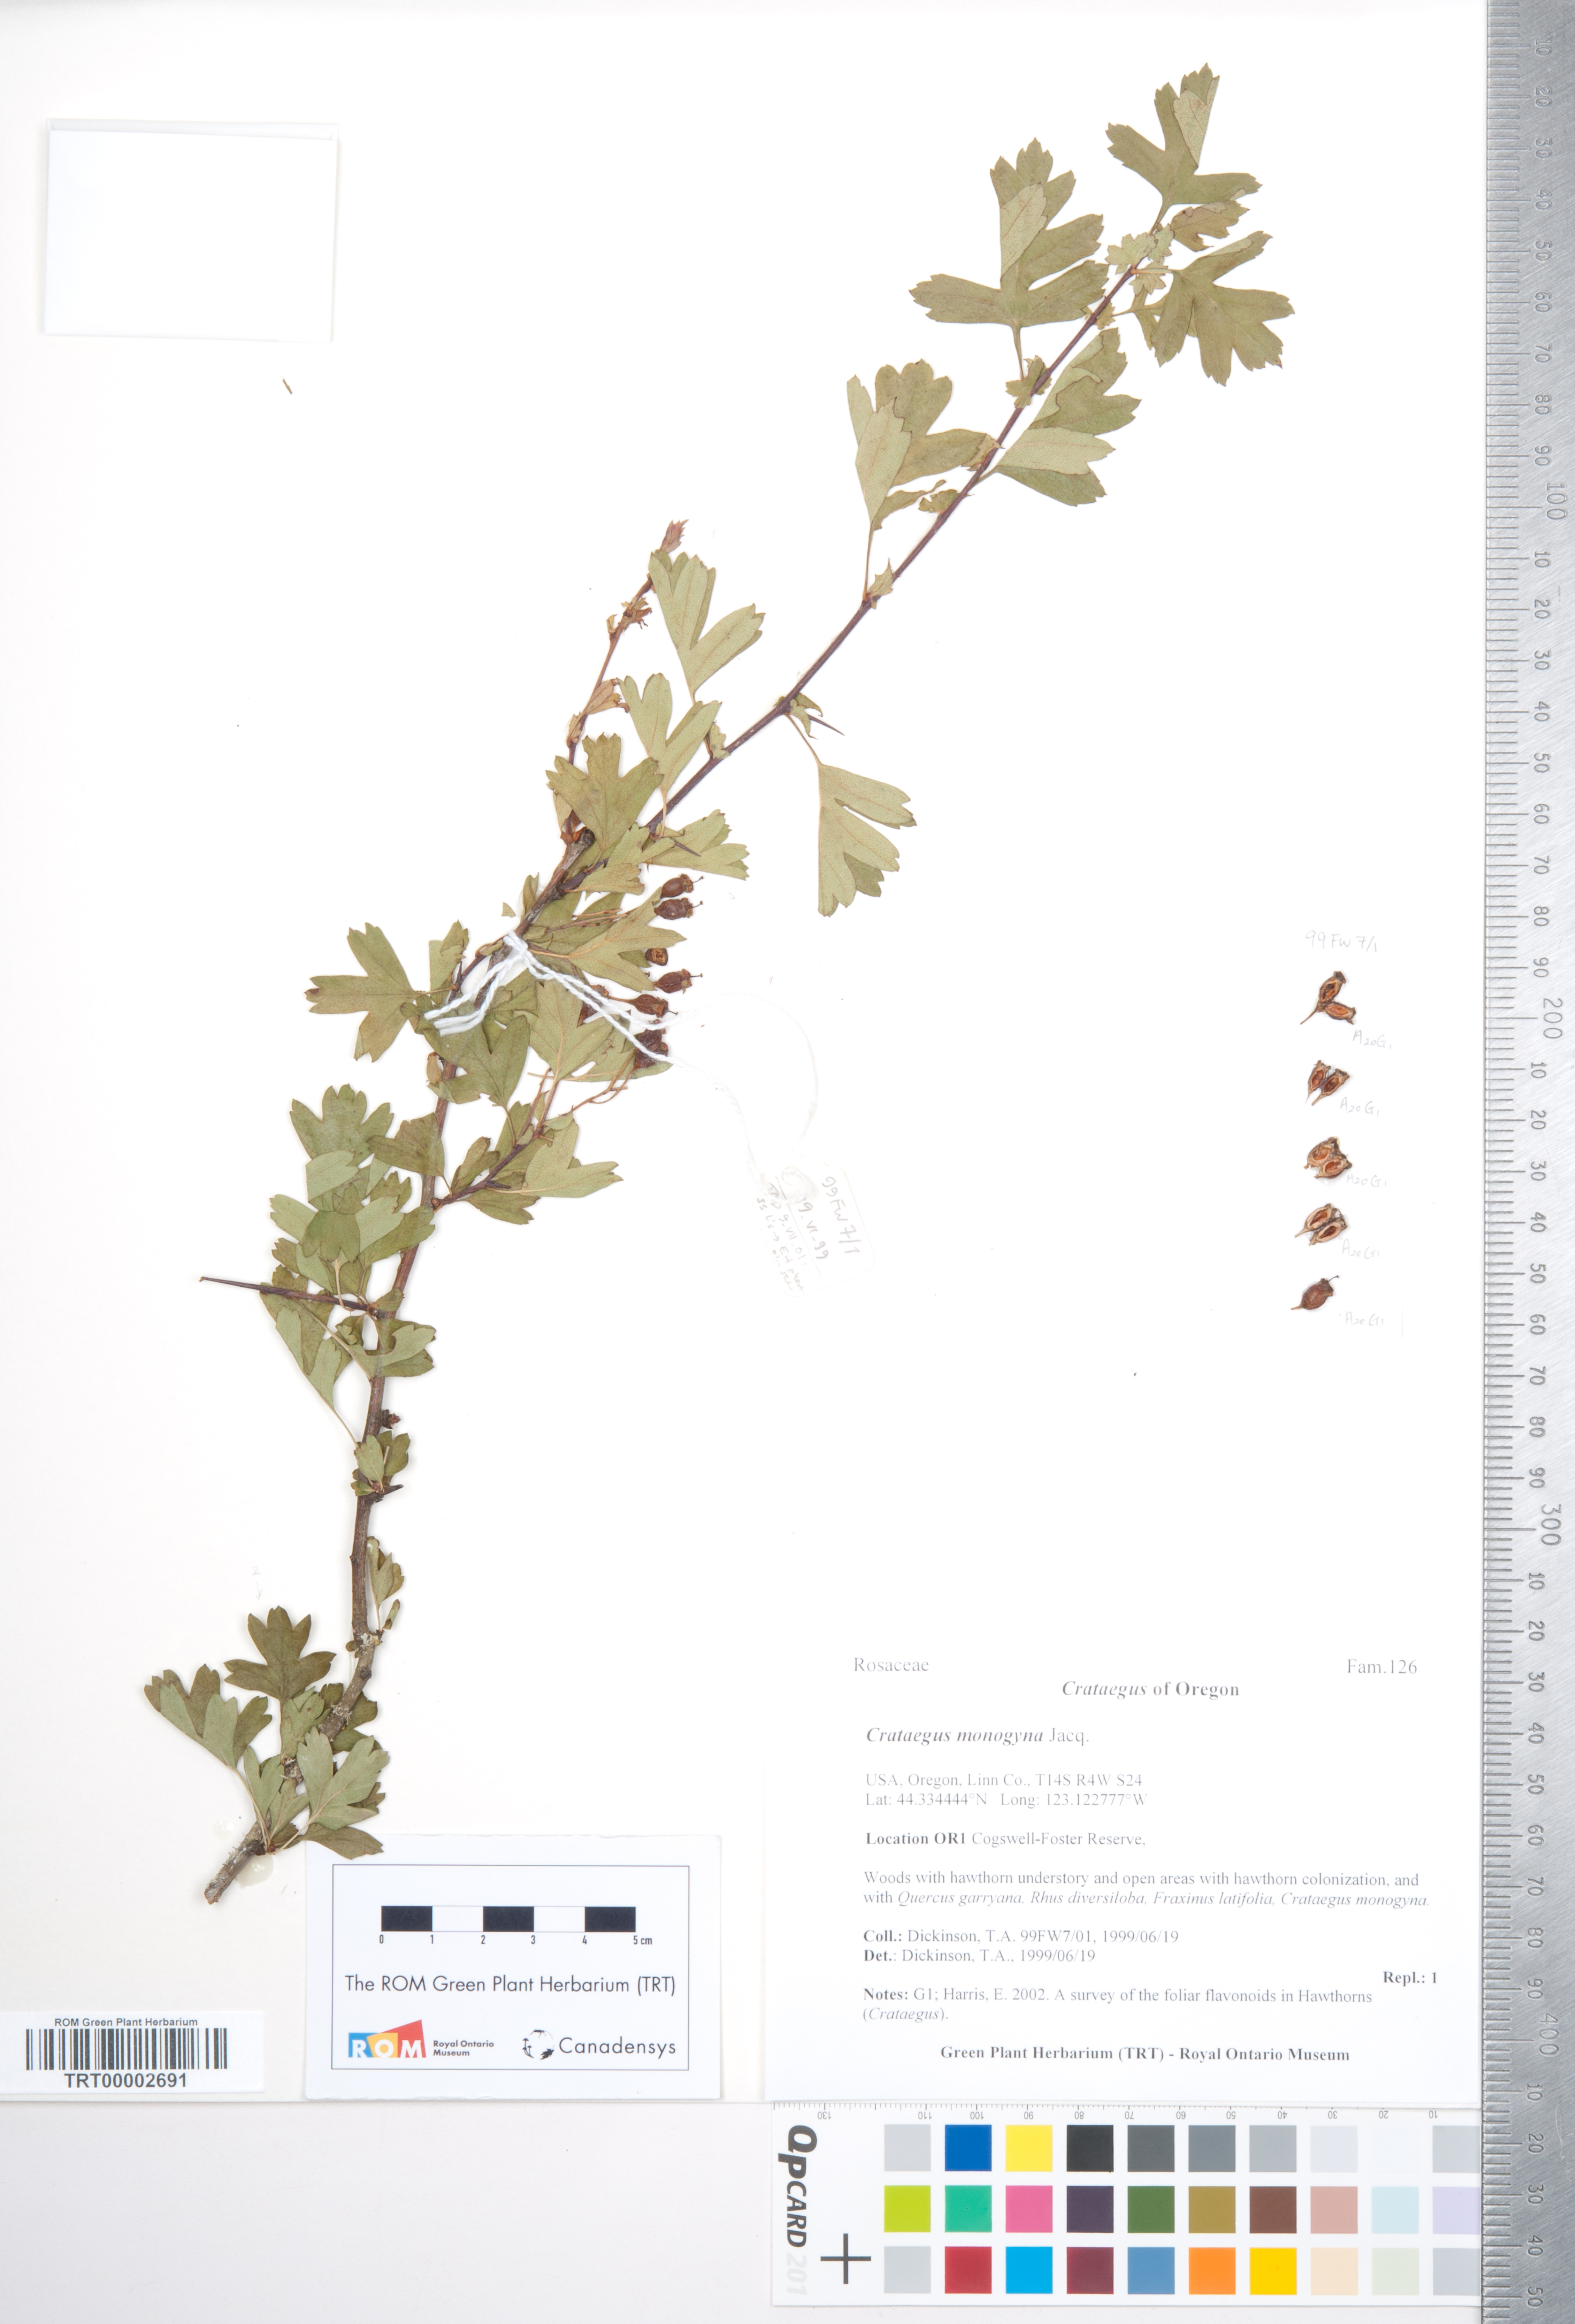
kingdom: Plantae
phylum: Tracheophyta
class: Magnoliopsida
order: Rosales
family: Rosaceae
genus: Crataegus
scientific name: Crataegus monogyna
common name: Hawthorn
